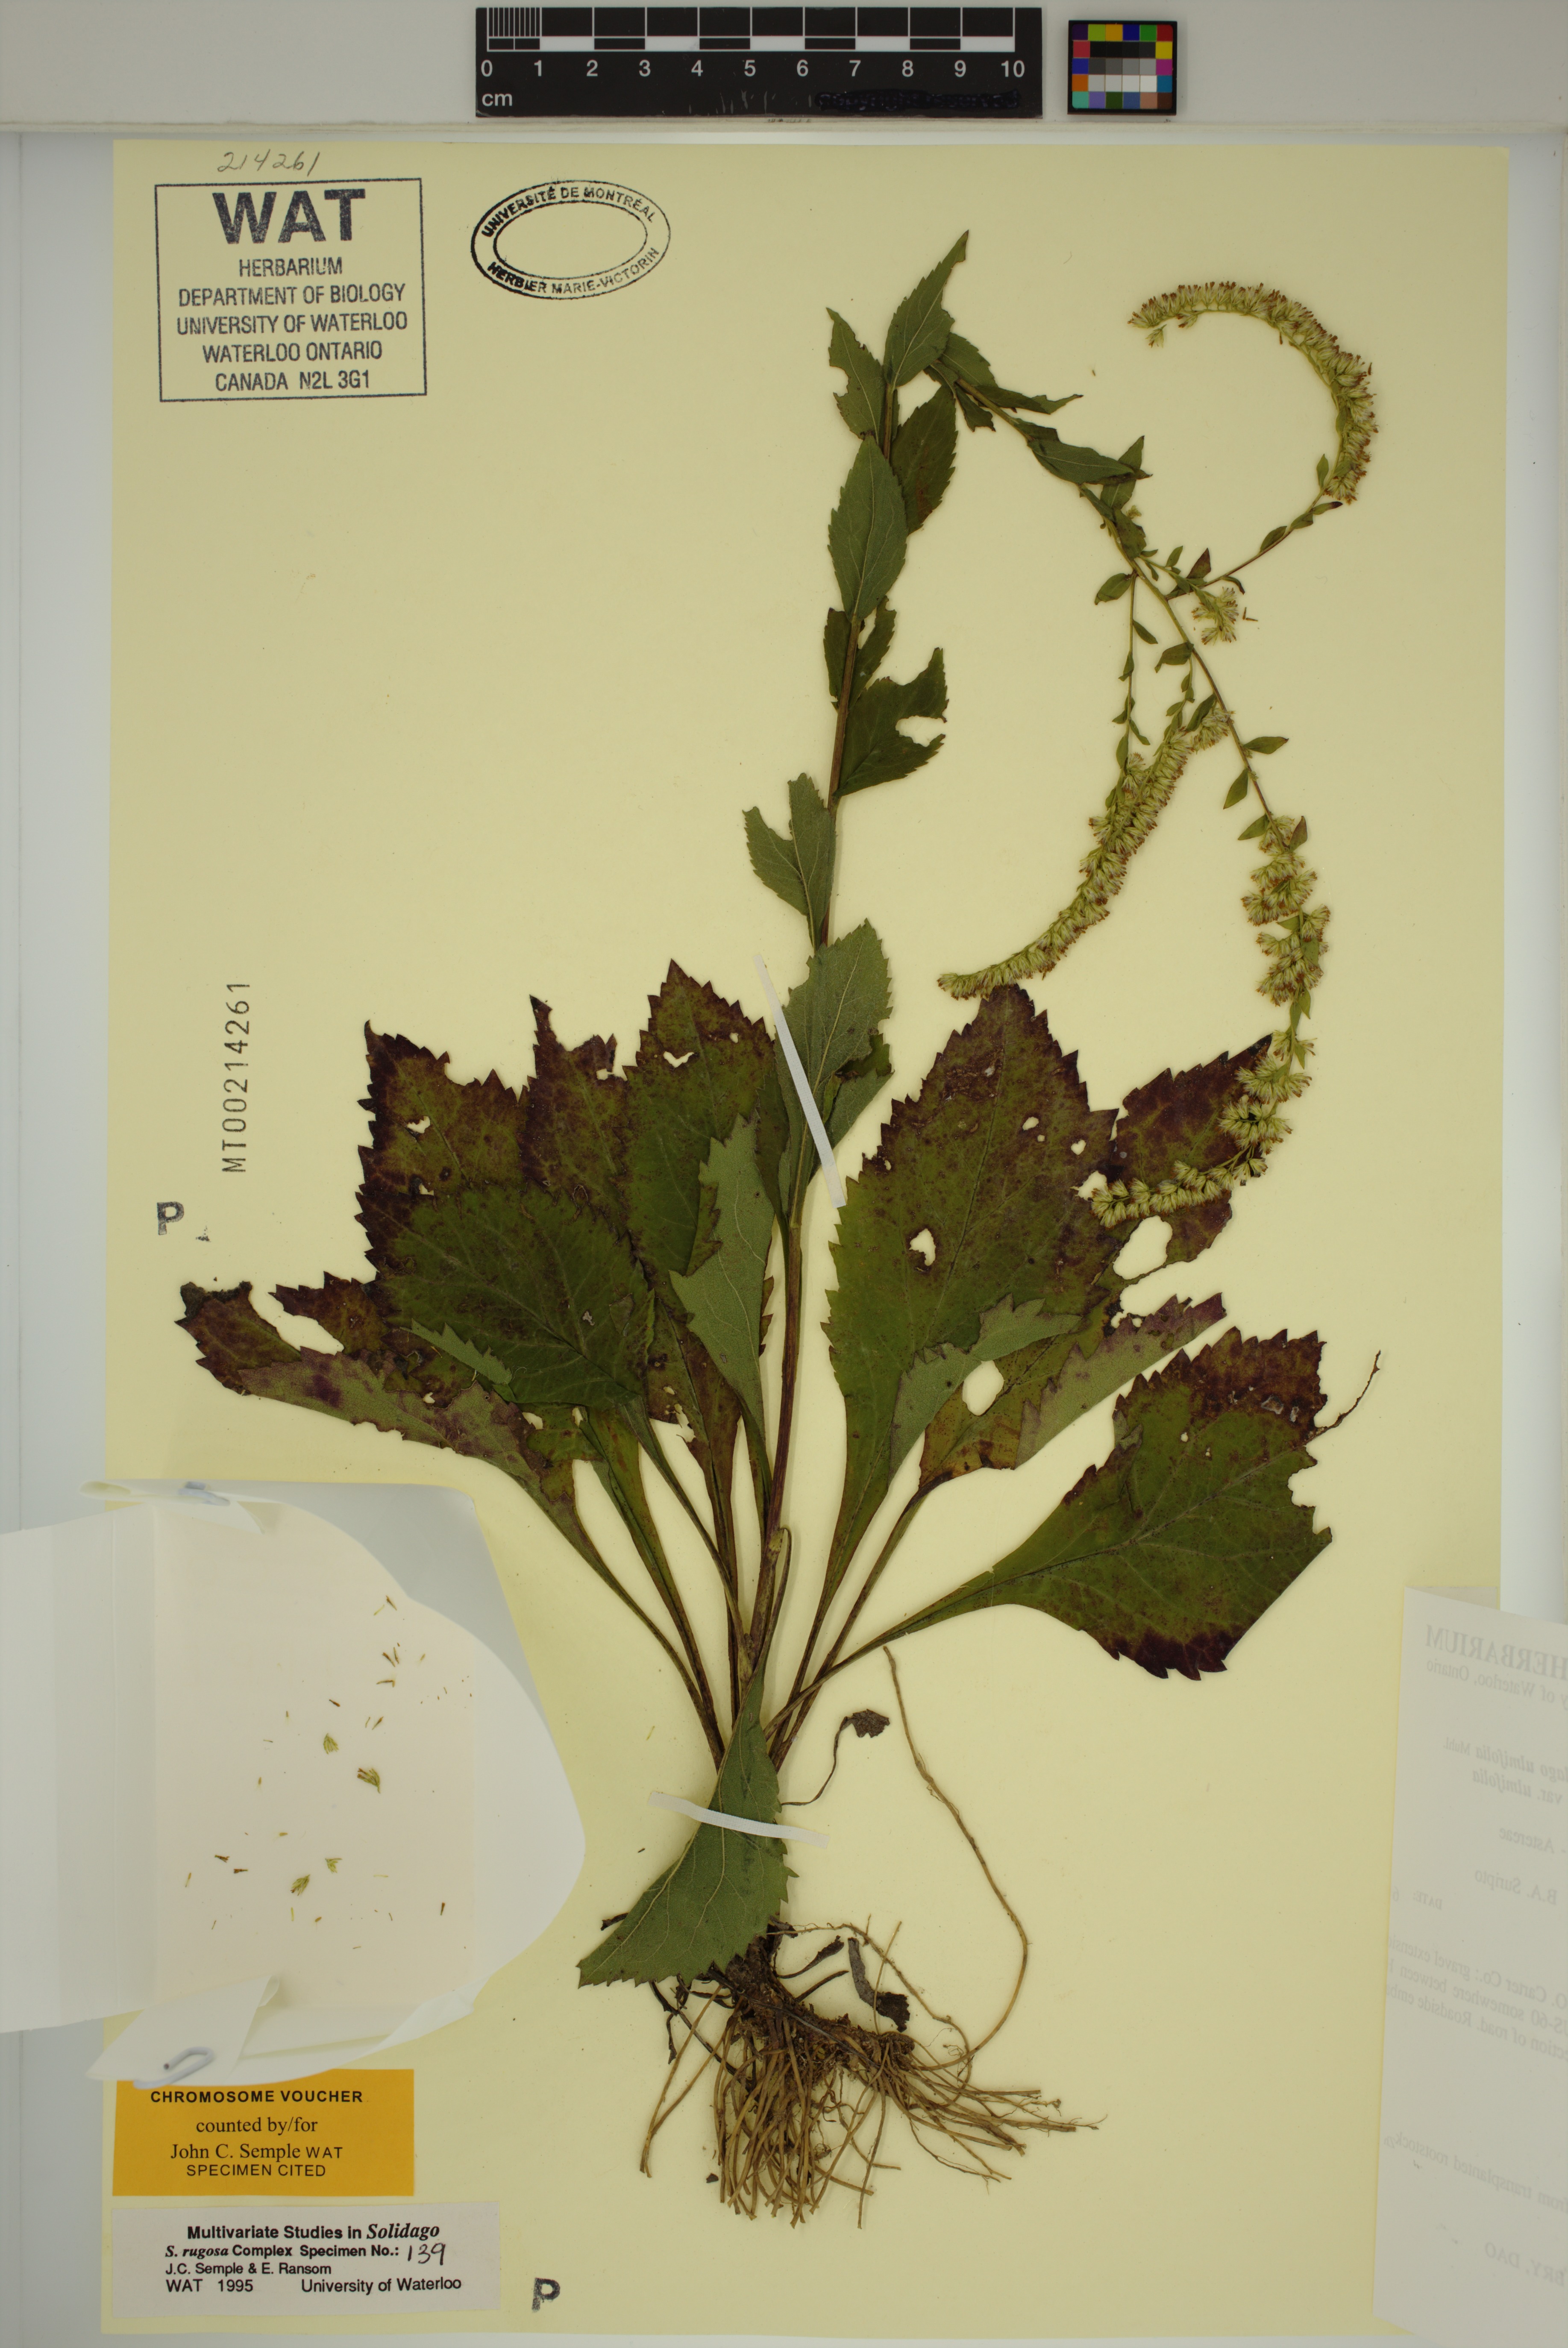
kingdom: Plantae
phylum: Tracheophyta
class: Magnoliopsida
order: Asterales
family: Asteraceae
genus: Solidago
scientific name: Solidago ulmifolia
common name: Elm-leaf goldenrod
